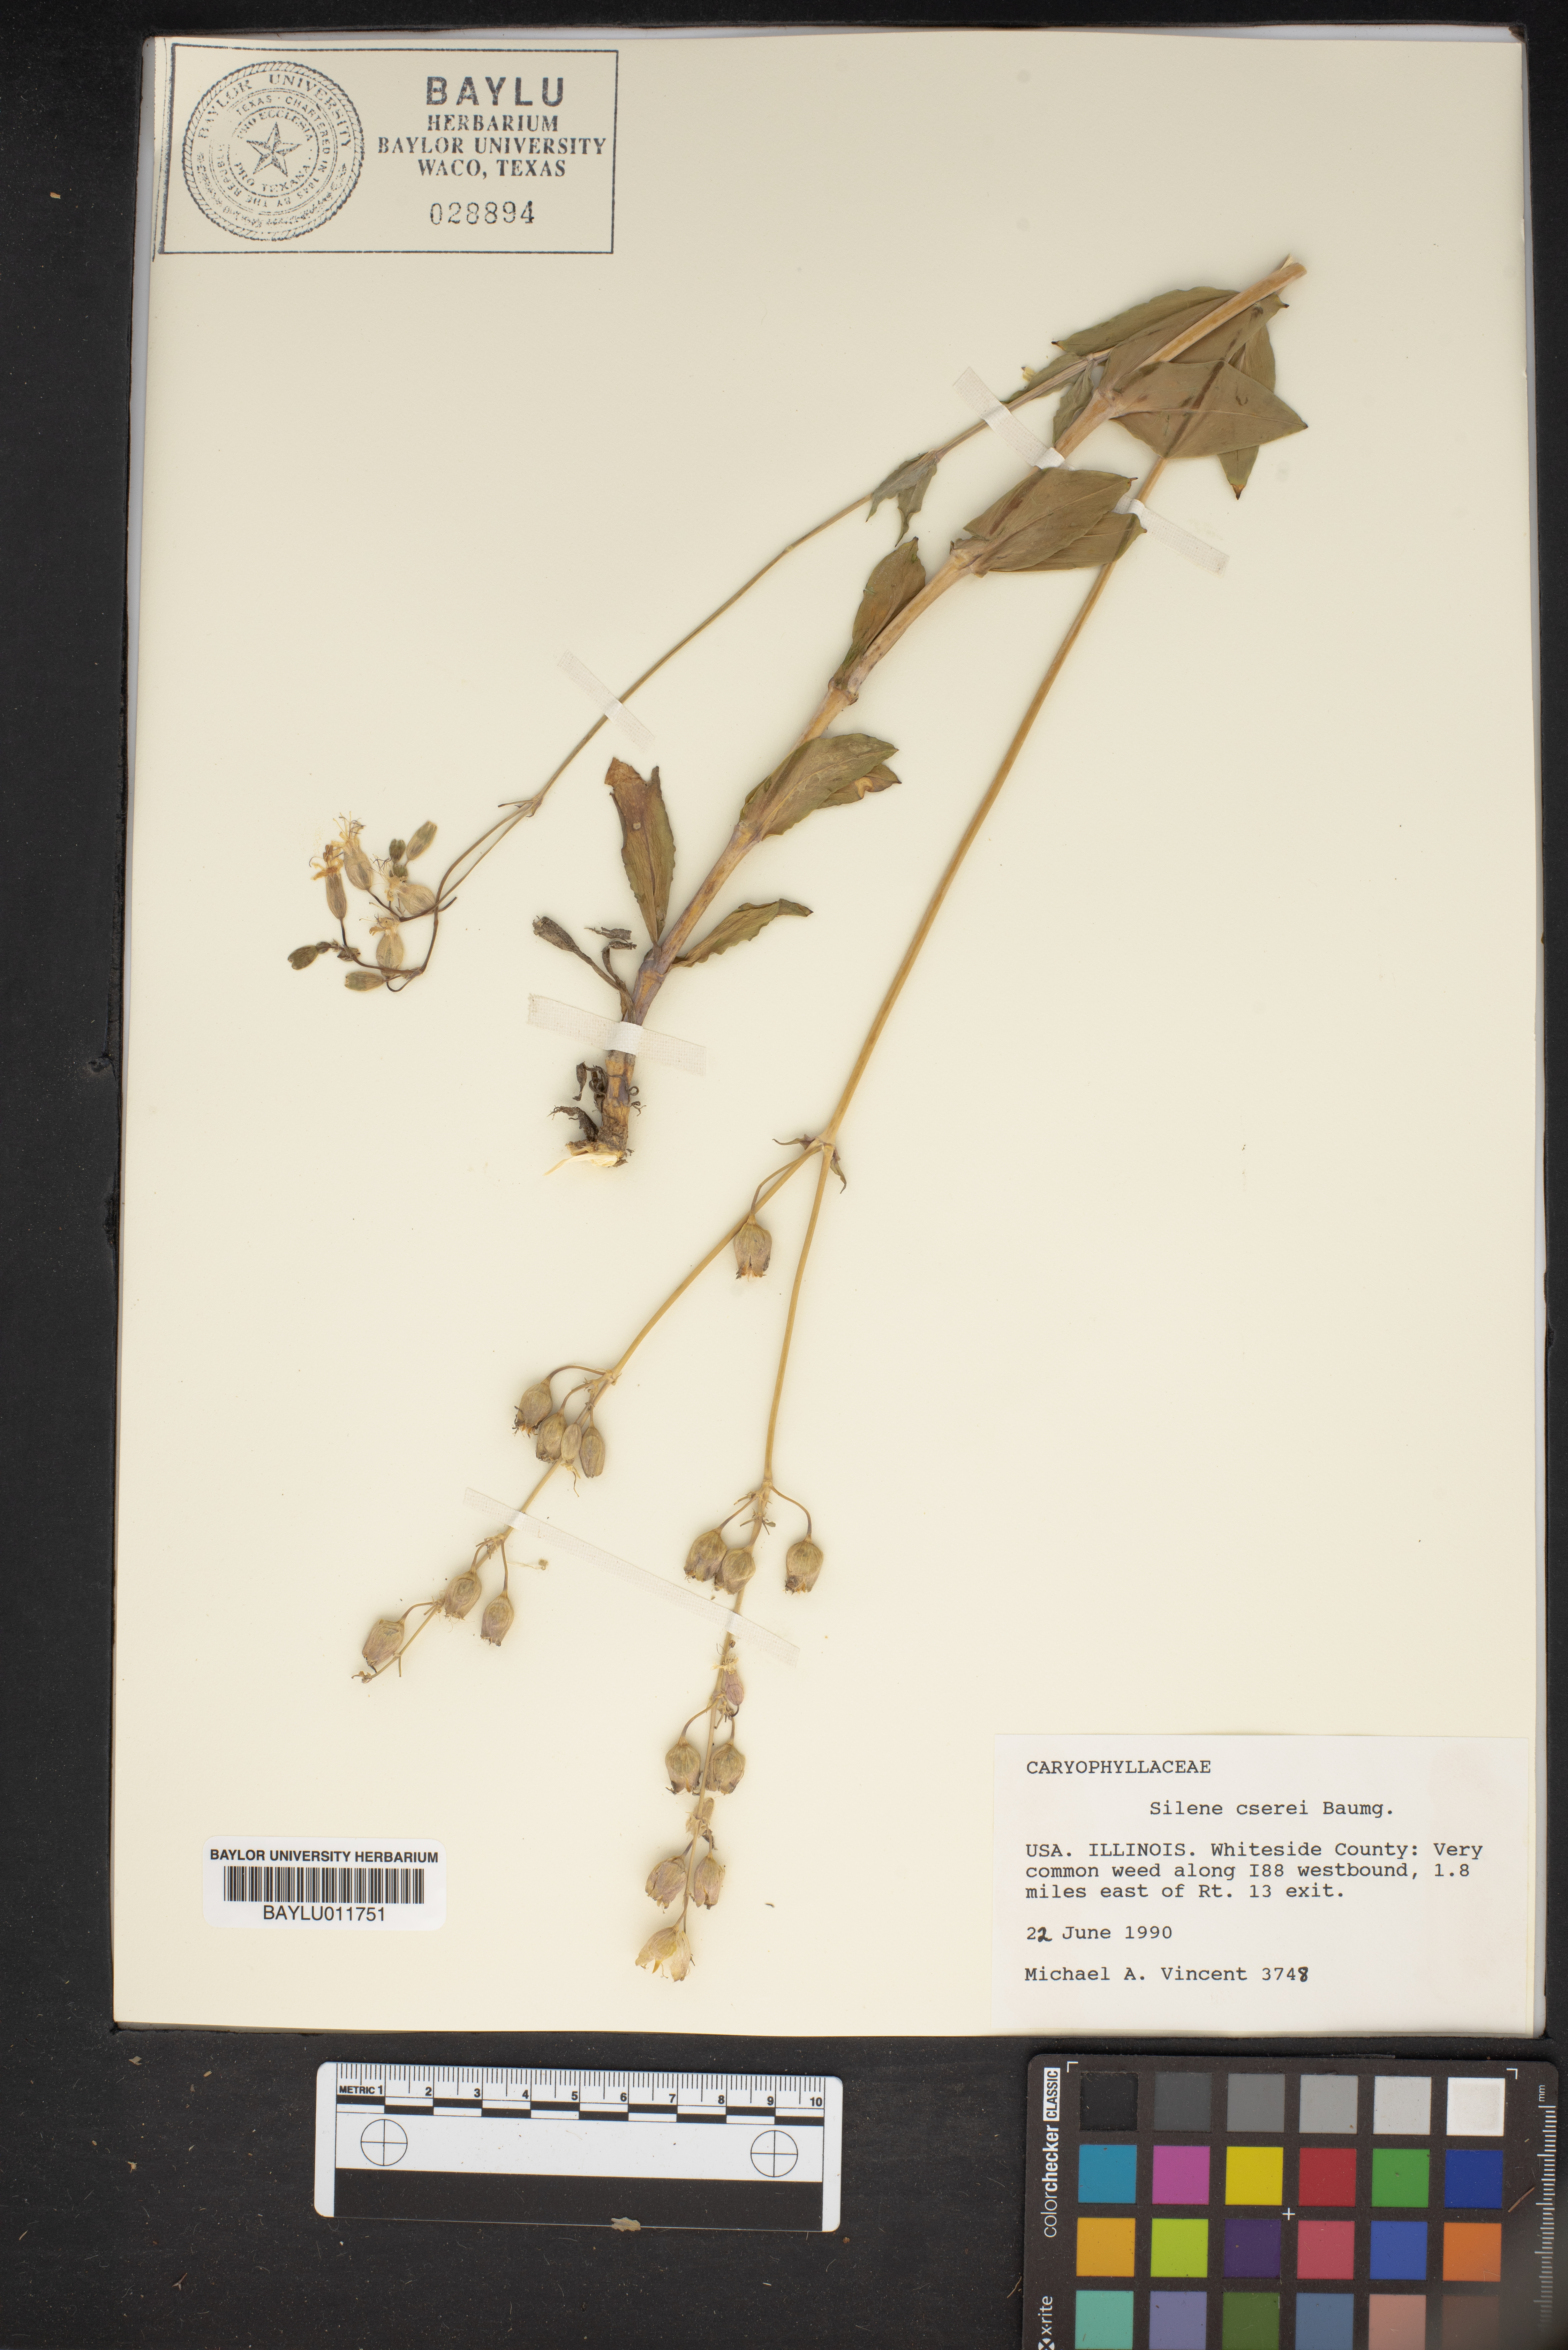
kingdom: Plantae
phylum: Tracheophyta
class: Magnoliopsida
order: Caryophyllales
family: Caryophyllaceae
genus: Silene
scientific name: Silene csereii
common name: Balkan catchfly
